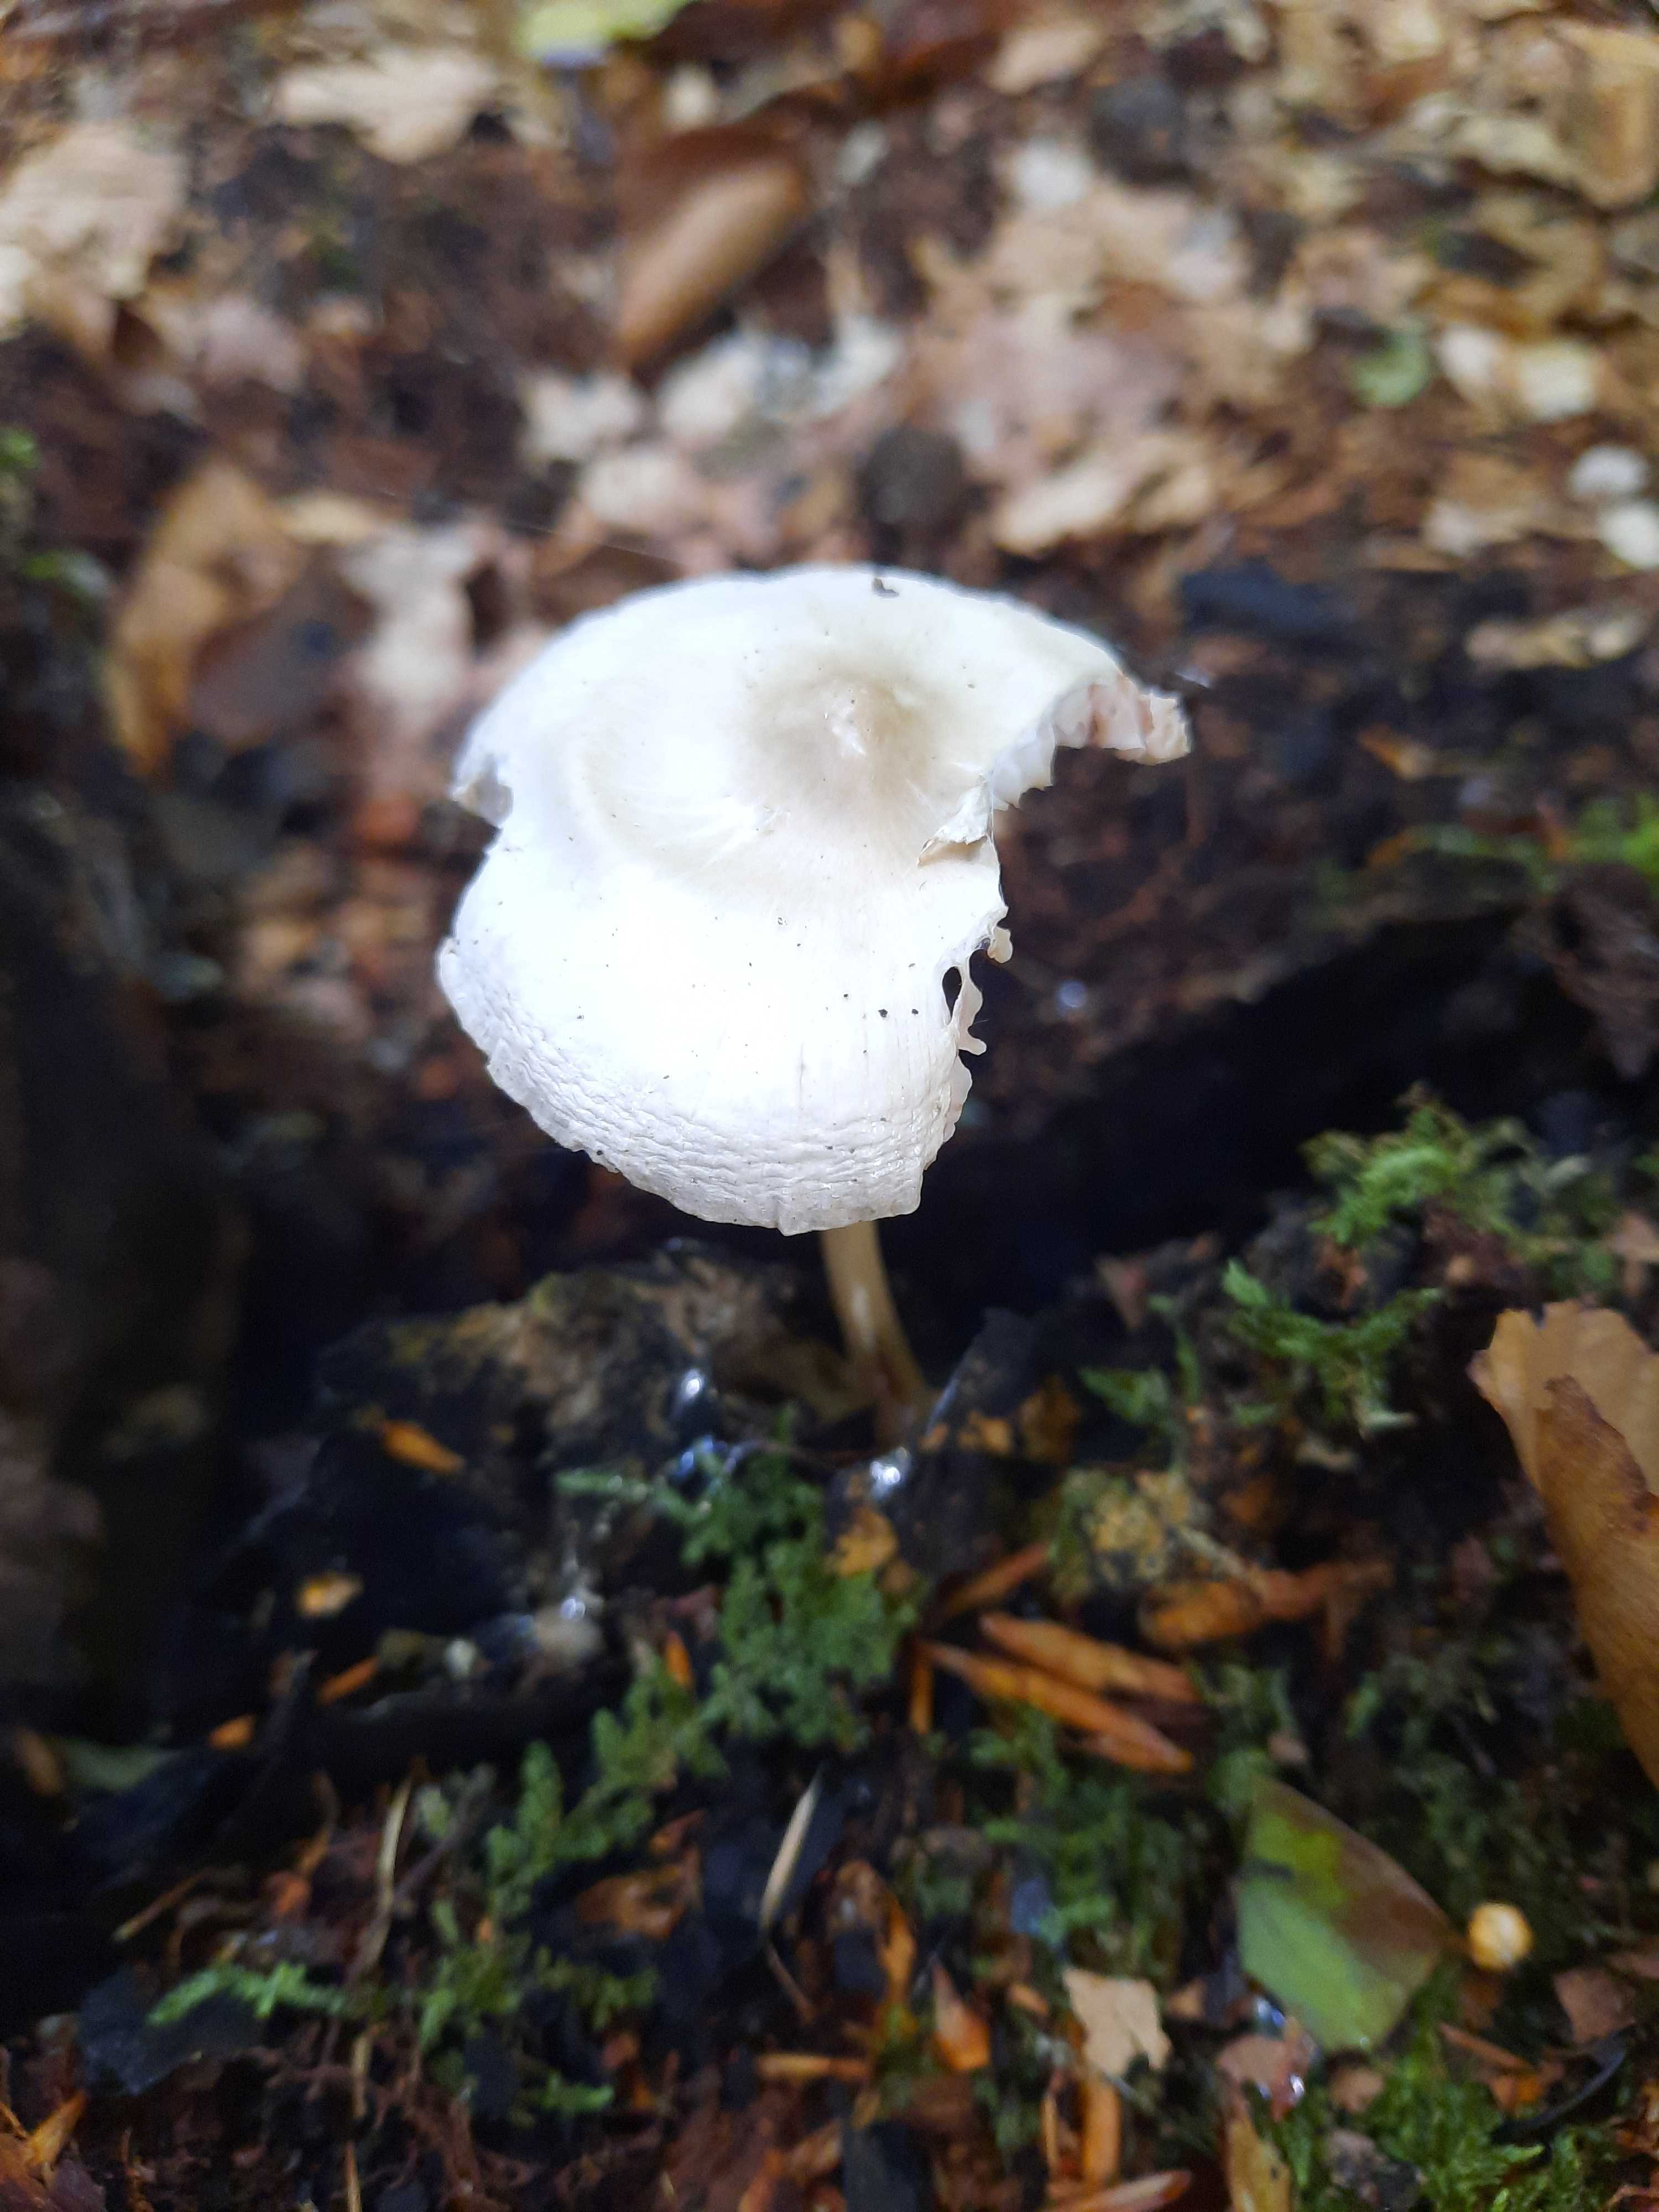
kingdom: Fungi
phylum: Basidiomycota
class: Agaricomycetes
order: Agaricales
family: Mycenaceae
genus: Mycena
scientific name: Mycena galericulata
